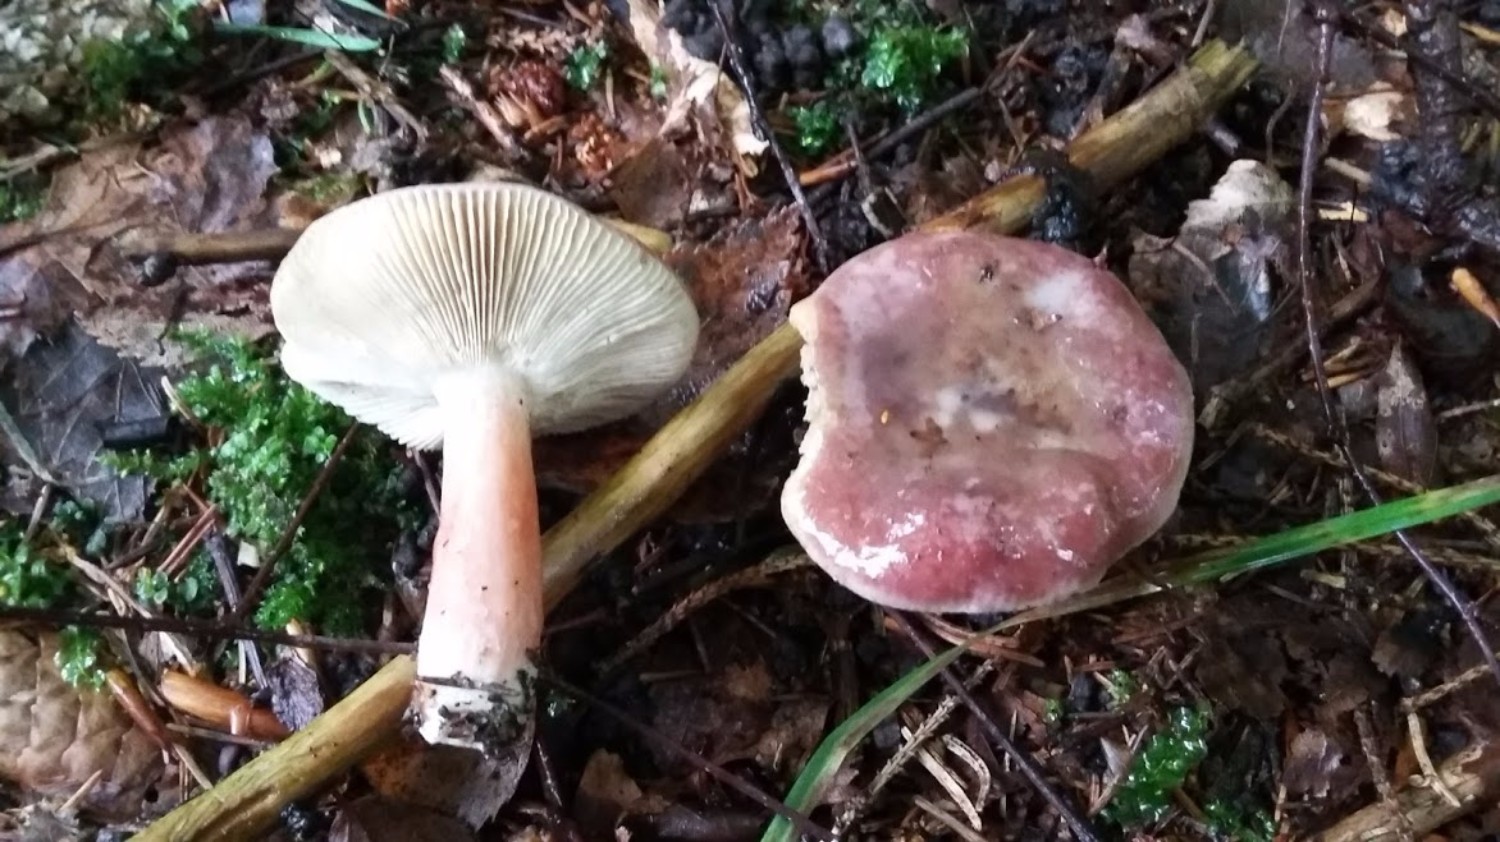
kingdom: Fungi
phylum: Basidiomycota
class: Agaricomycetes
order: Russulales
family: Russulaceae
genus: Russula
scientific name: Russula queletii
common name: Quélets skørhat
